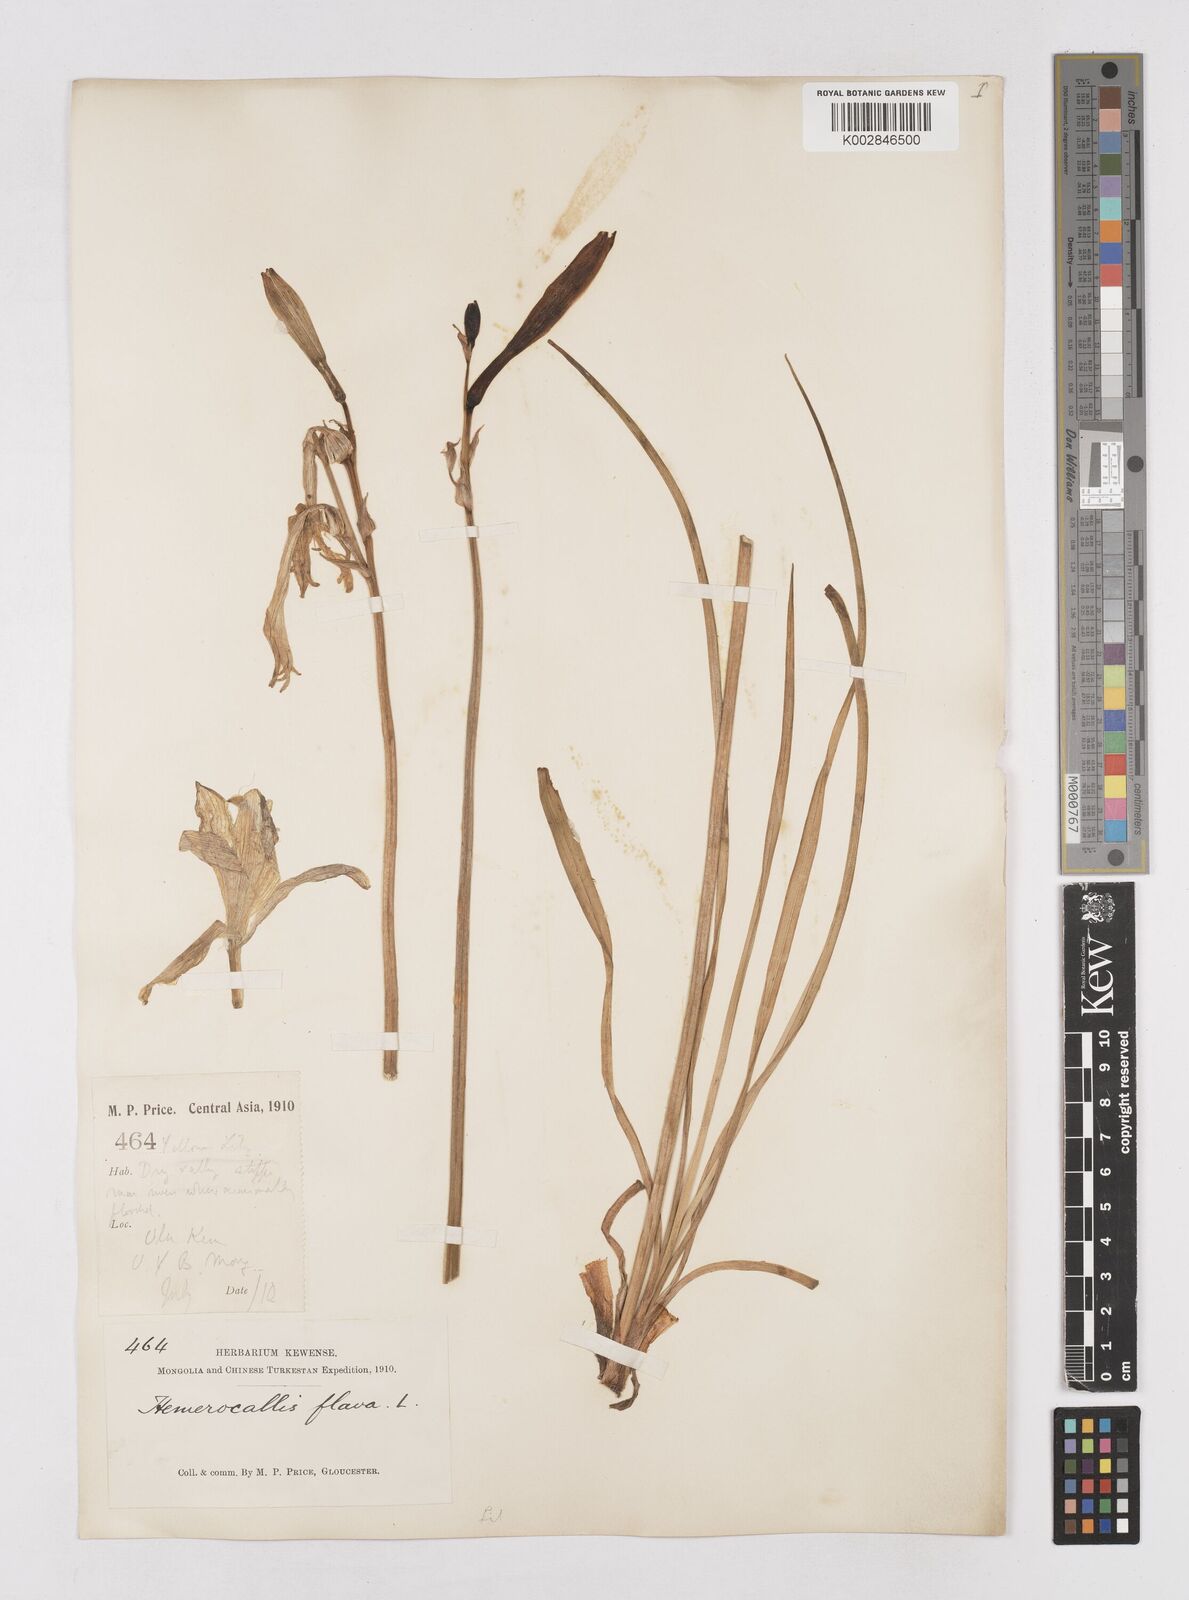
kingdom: Plantae
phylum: Tracheophyta
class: Liliopsida
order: Asparagales
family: Asphodelaceae
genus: Hemerocallis
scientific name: Hemerocallis lilioasphodelus
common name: Yellow day-lily
